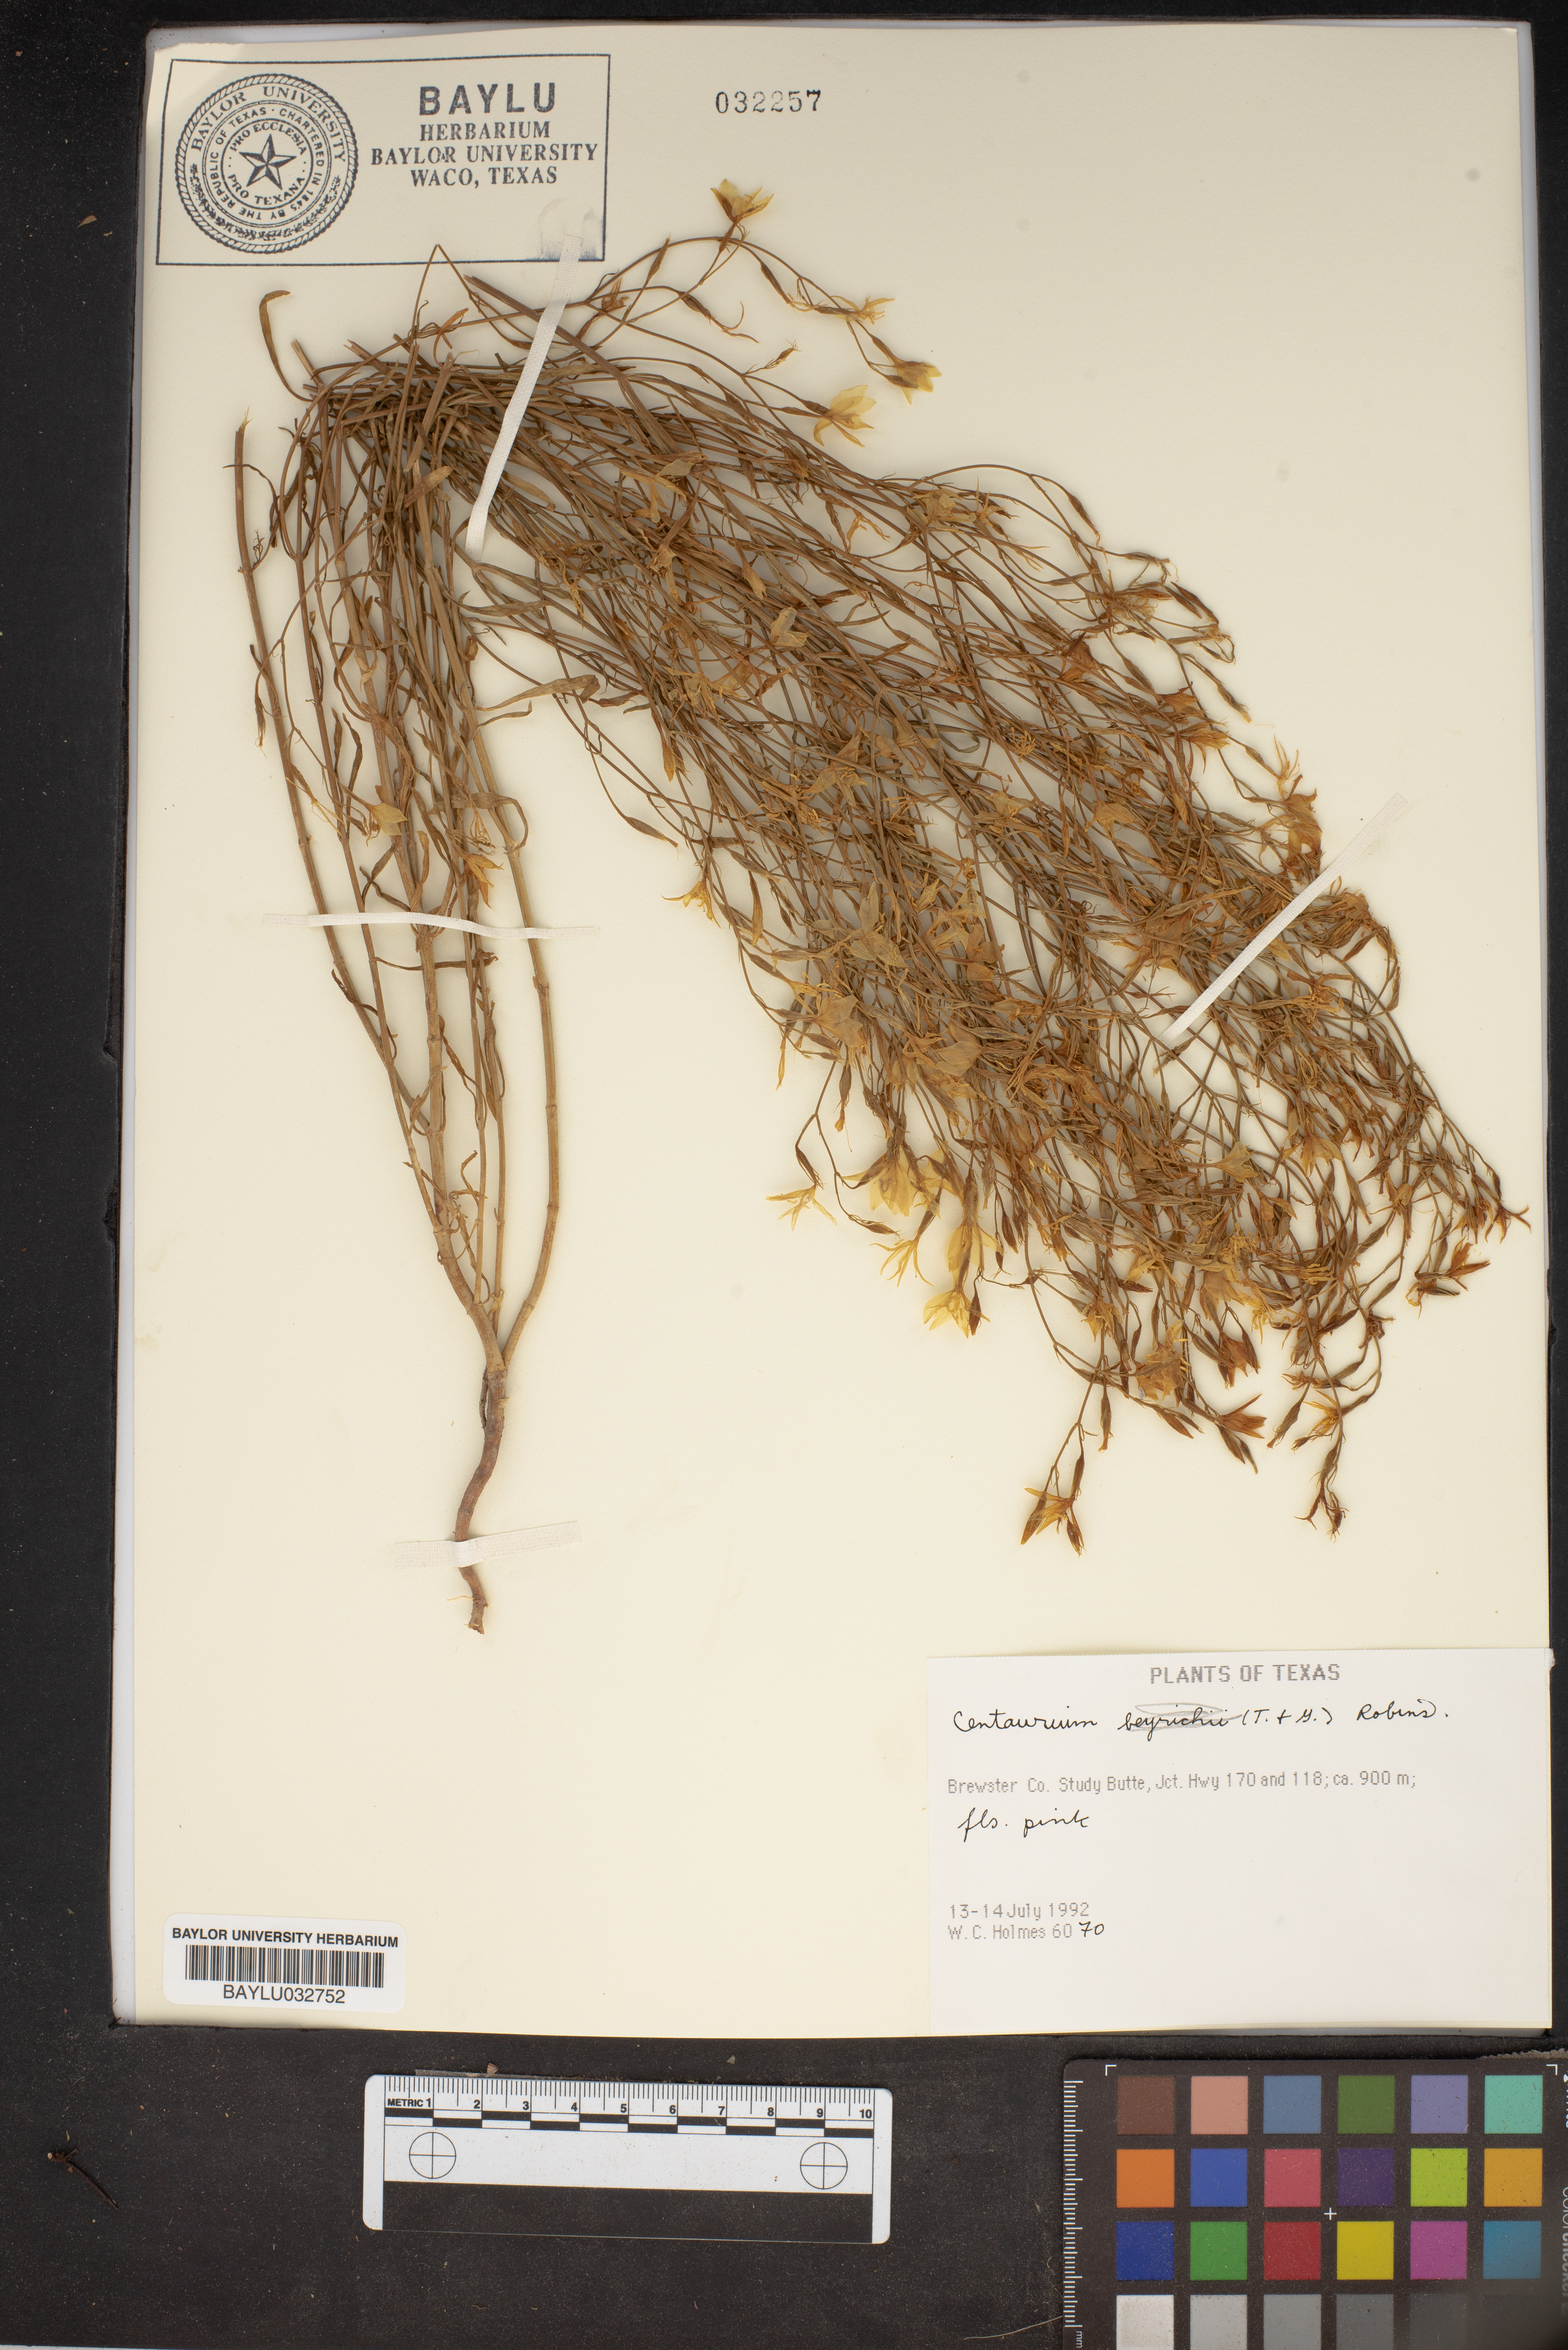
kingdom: Plantae
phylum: Tracheophyta
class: Magnoliopsida
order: Gentianales
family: Gentianaceae
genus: Centaurium
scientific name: Centaurium
